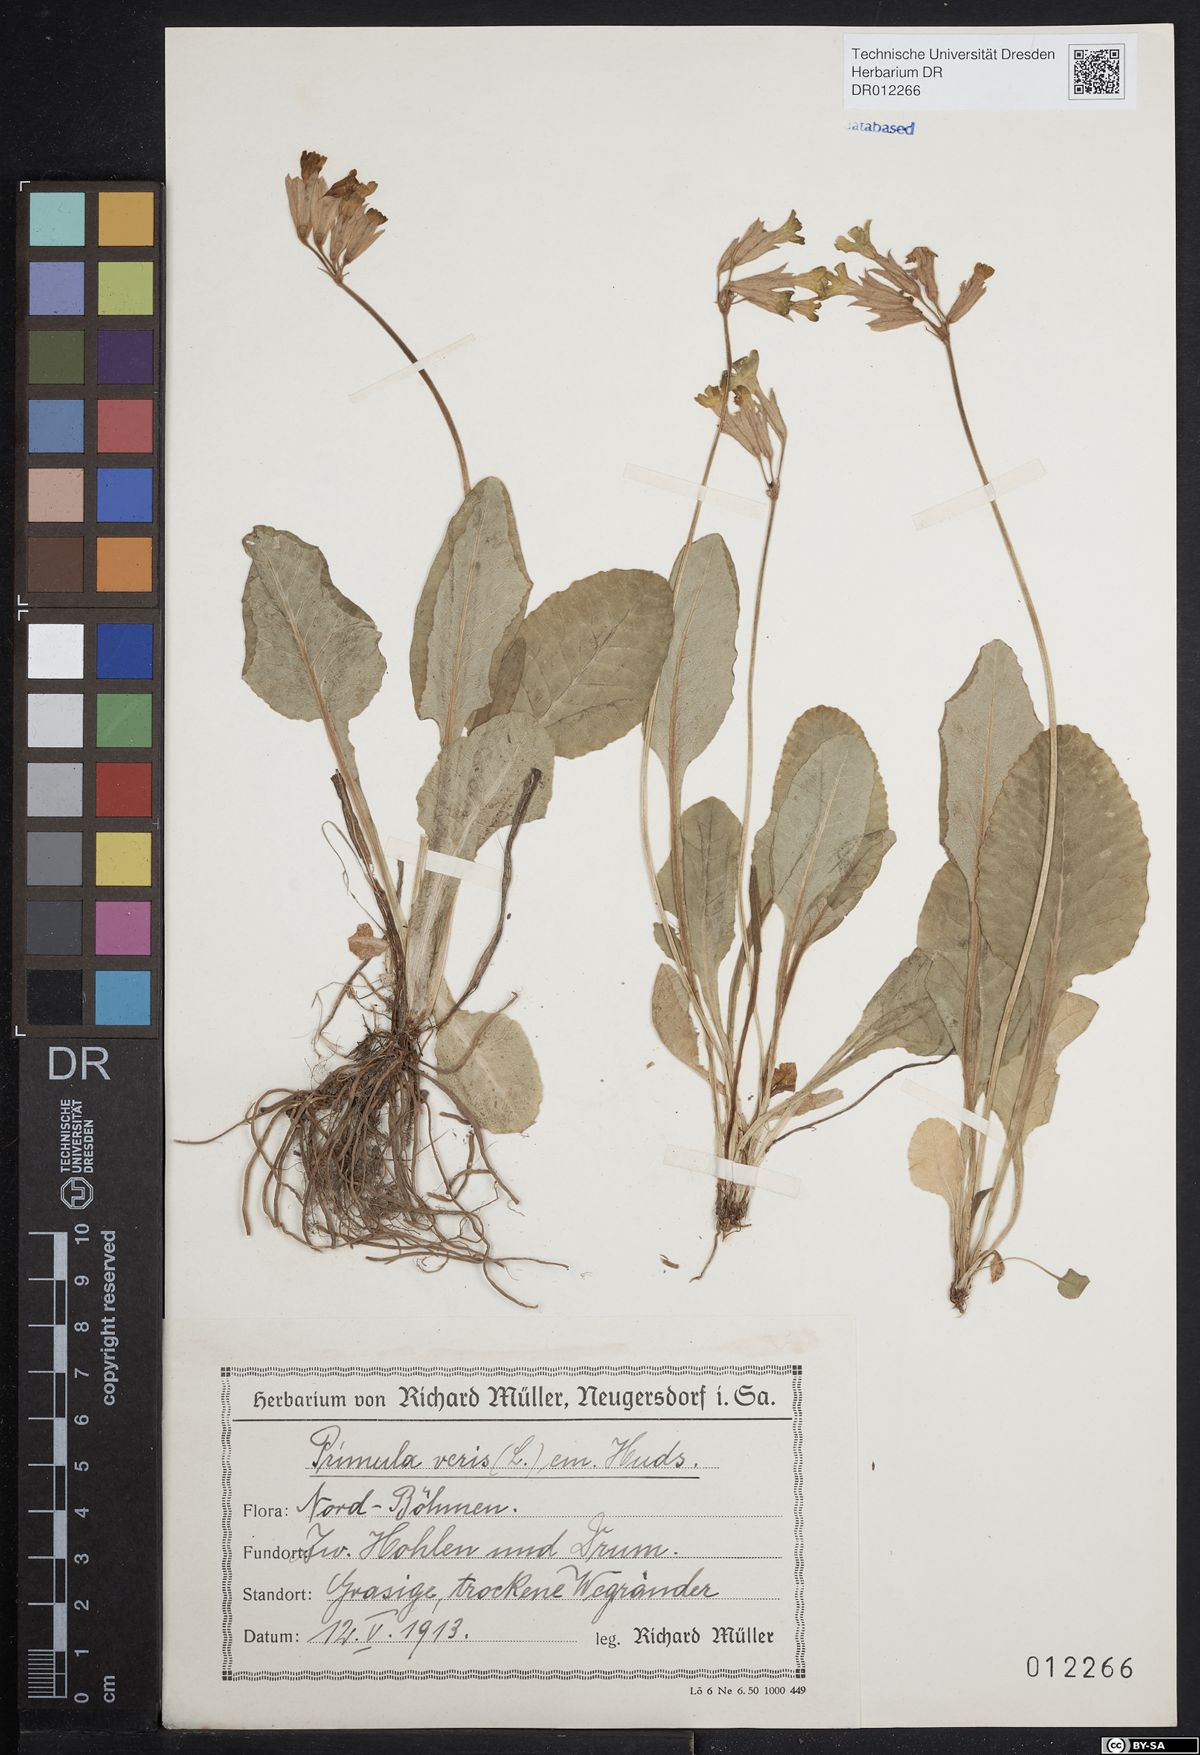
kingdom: Plantae
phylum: Tracheophyta
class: Magnoliopsida
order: Ericales
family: Primulaceae
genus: Primula
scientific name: Primula veris
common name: Cowslip
